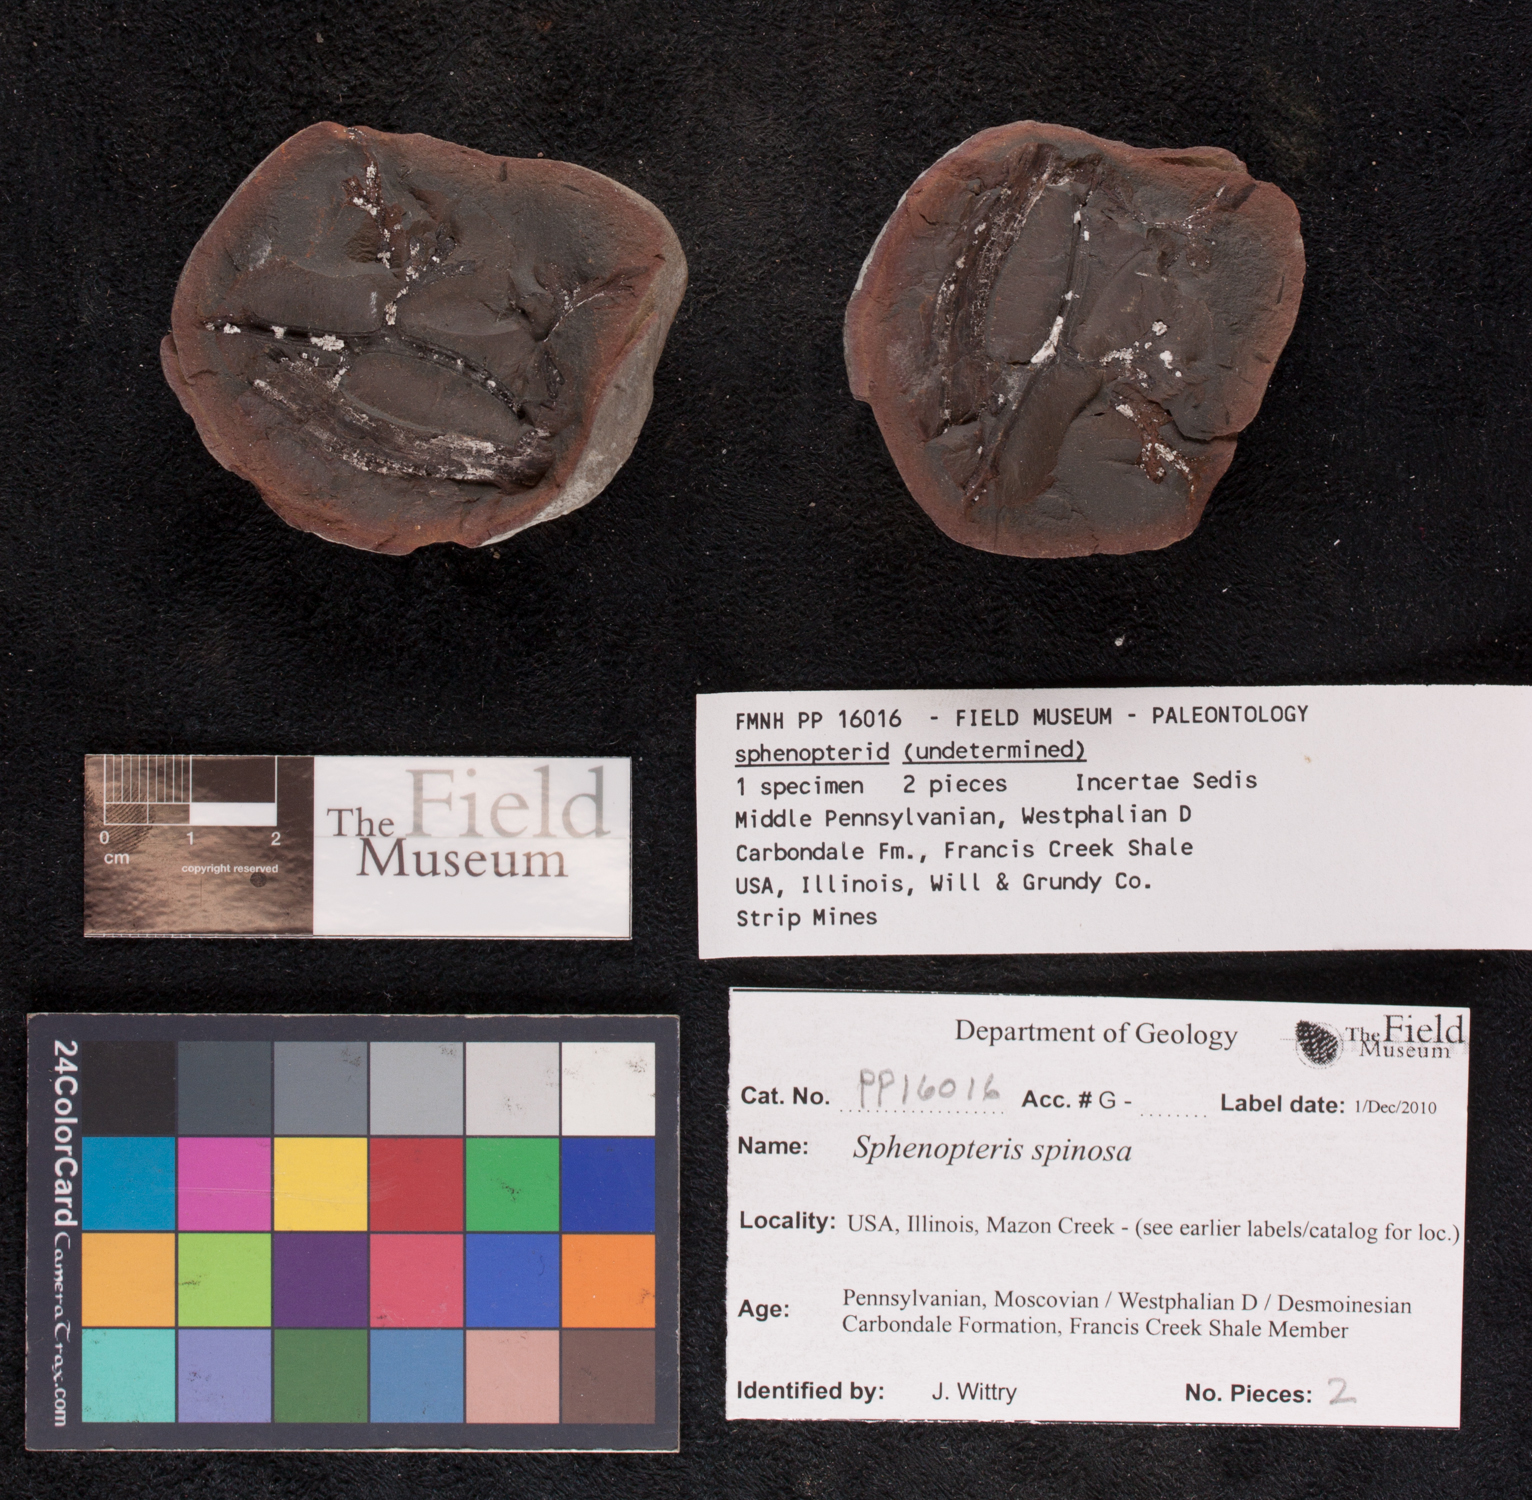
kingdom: Plantae
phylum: Tracheophyta
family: Lyginopteridaceae
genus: Sphenopteris
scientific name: Sphenopteris
